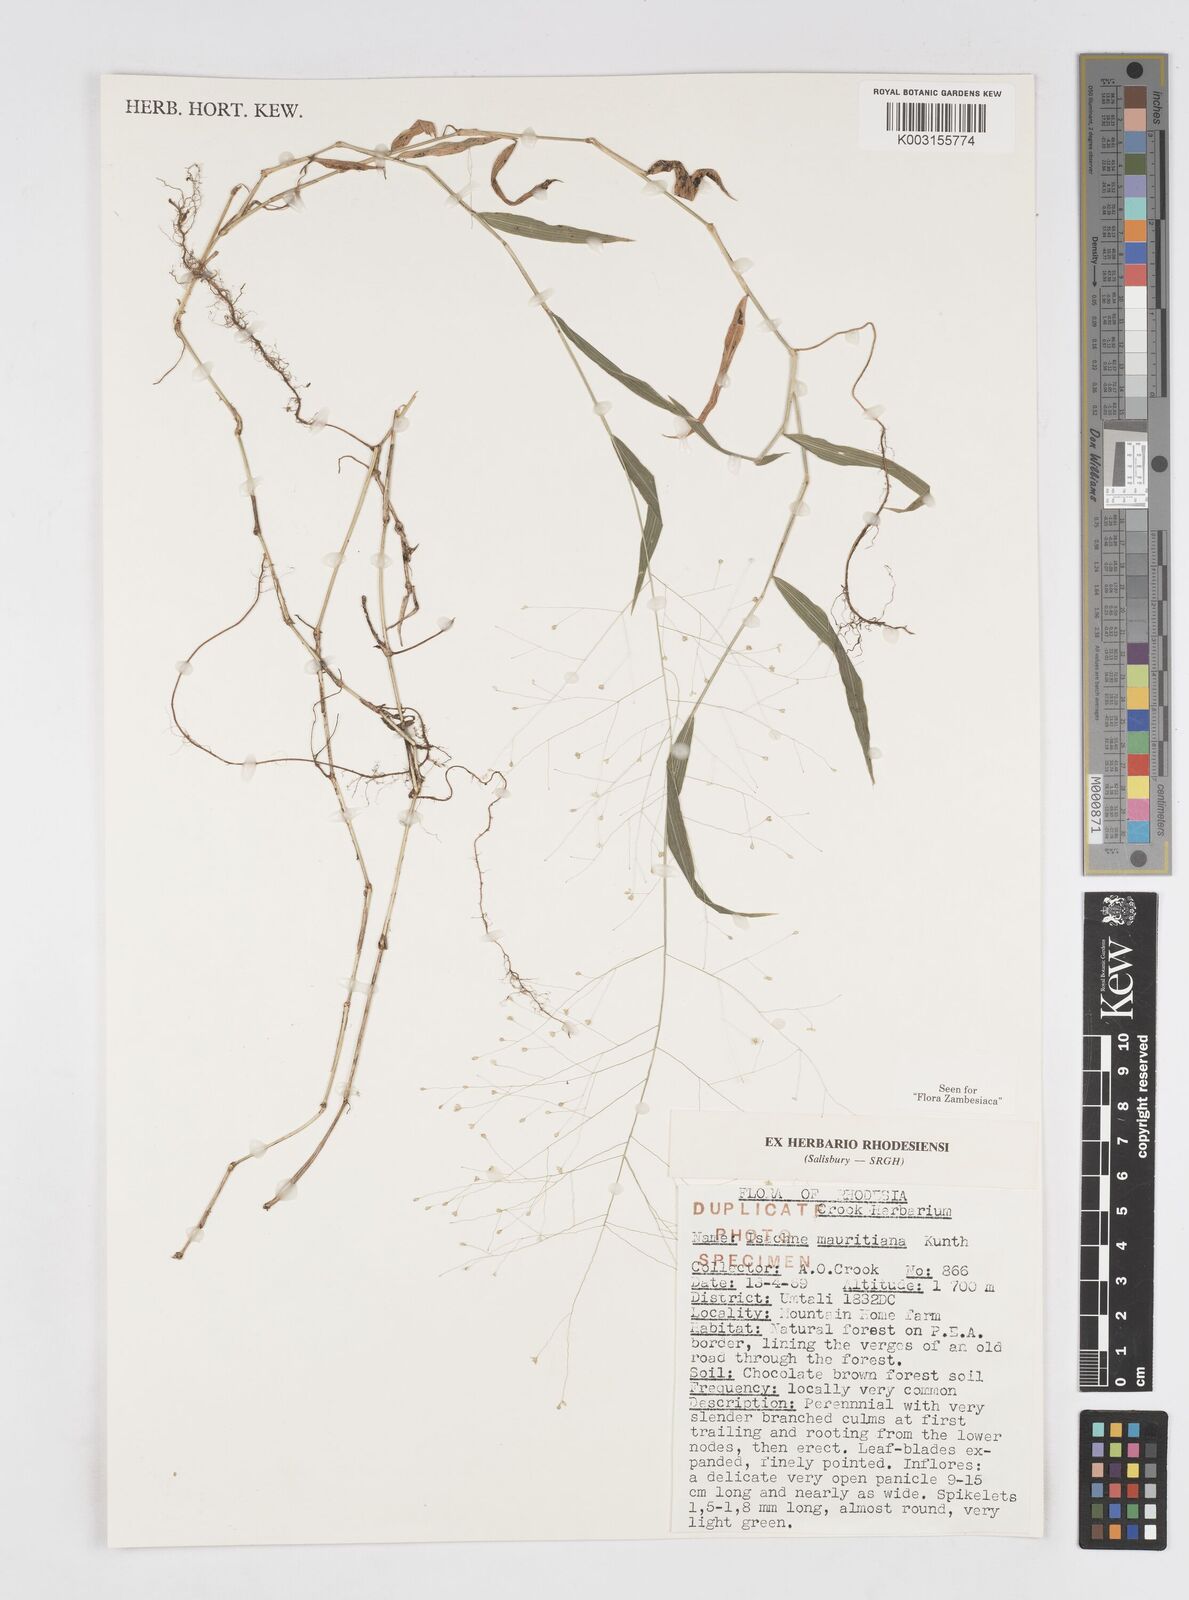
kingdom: Plantae
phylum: Tracheophyta
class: Liliopsida
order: Poales
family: Poaceae
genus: Isachne
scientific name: Isachne mauritiana
